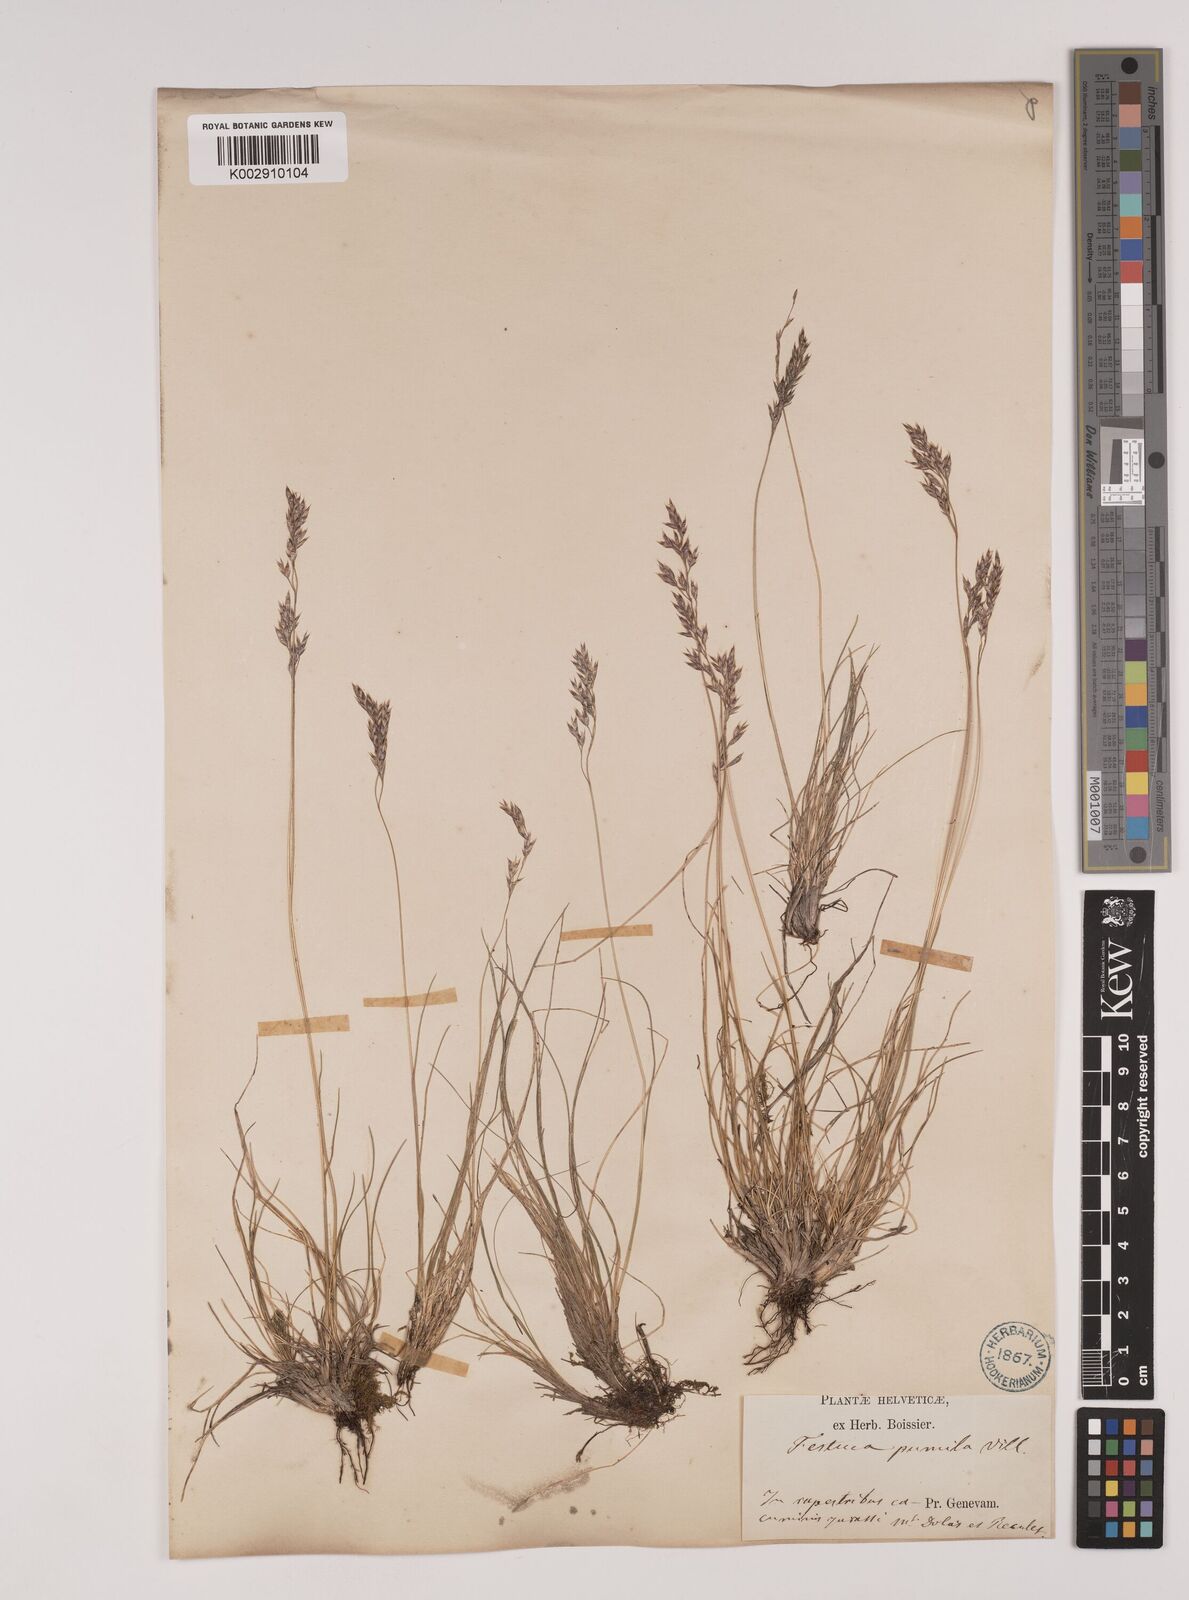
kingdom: Plantae
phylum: Tracheophyta
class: Liliopsida
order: Poales
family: Poaceae
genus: Festuca
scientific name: Festuca
